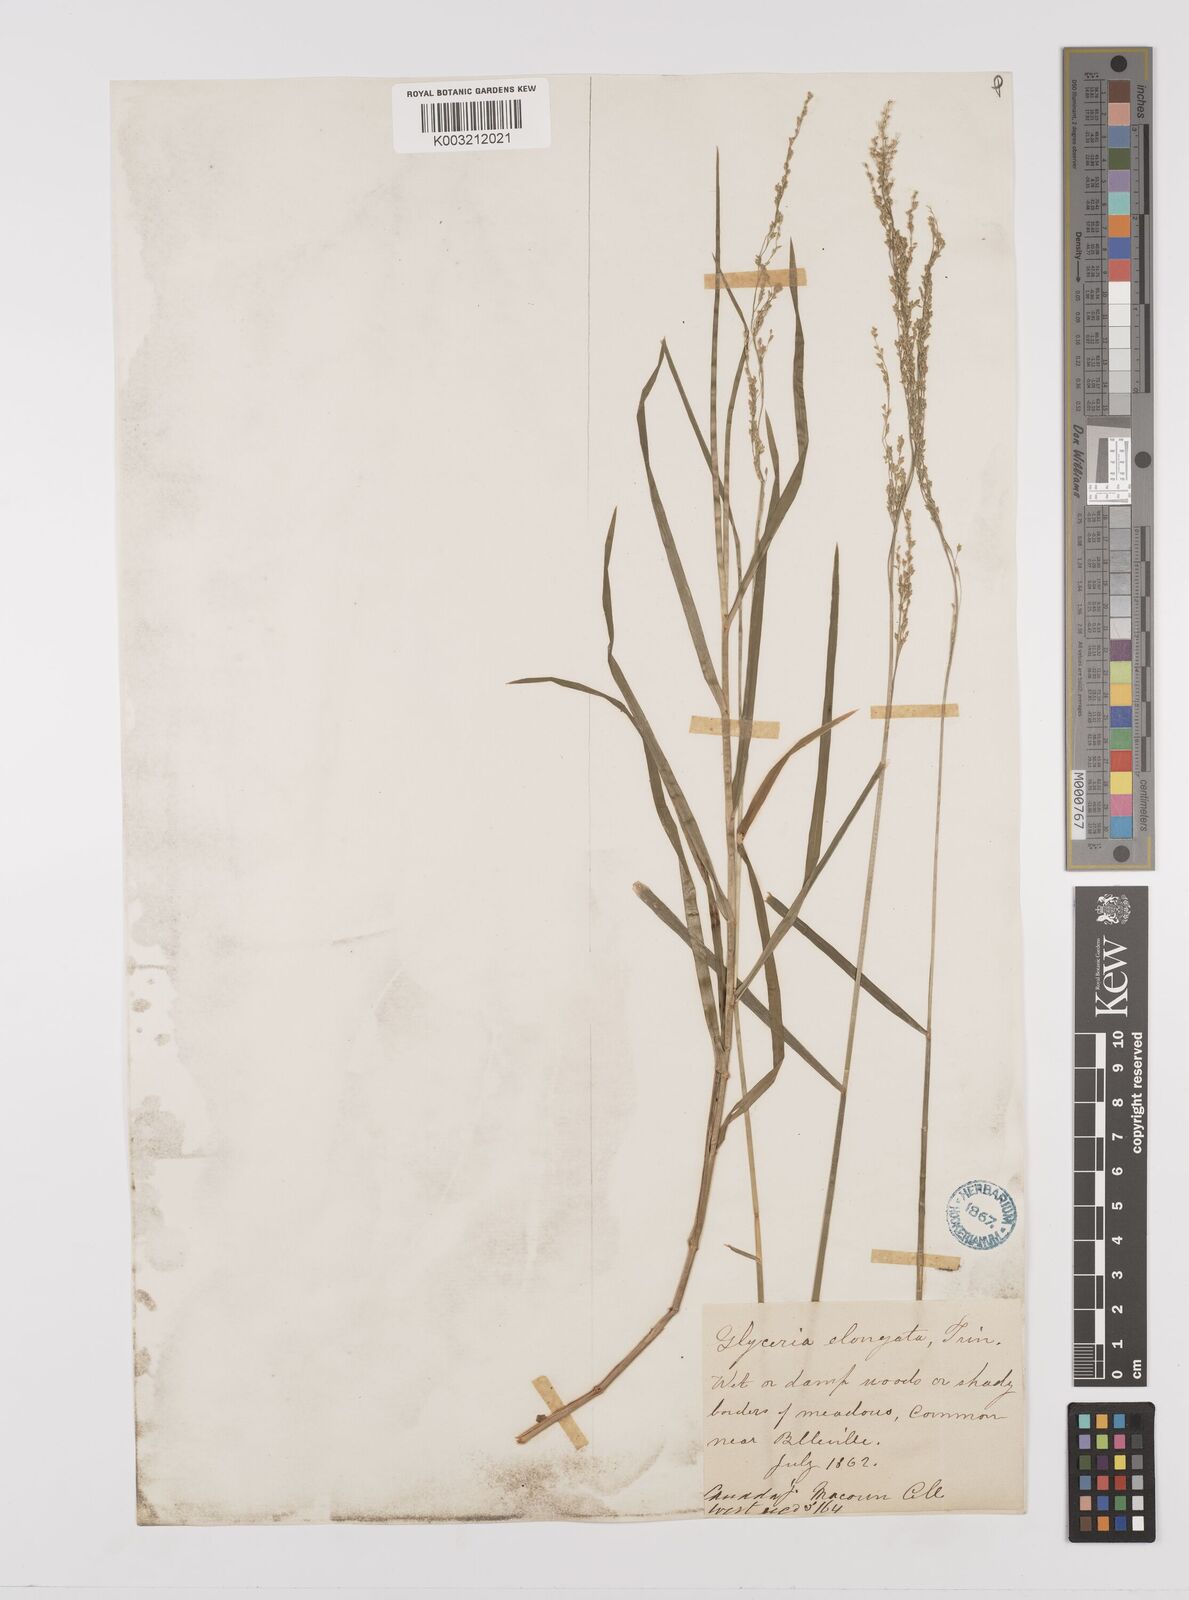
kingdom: Plantae
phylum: Tracheophyta
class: Liliopsida
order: Poales
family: Poaceae
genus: Glyceria
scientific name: Glyceria striata
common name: Fowl manna grass
